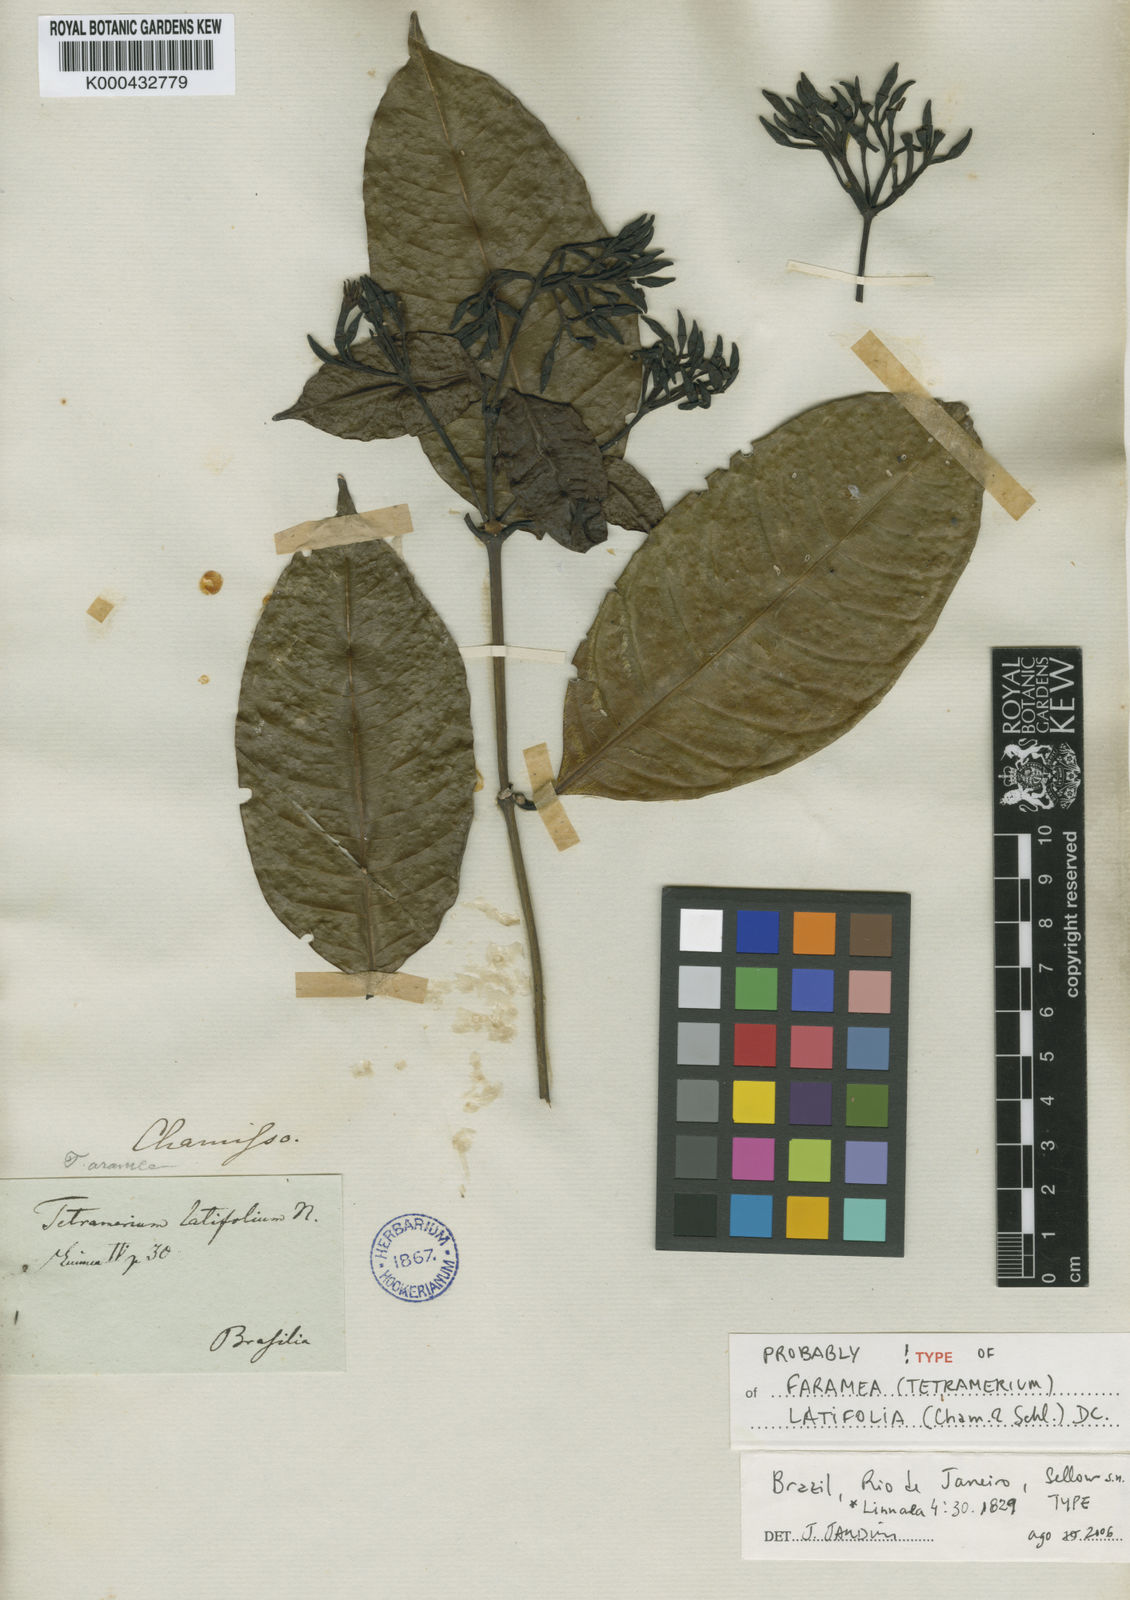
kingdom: Plantae
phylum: Tracheophyta
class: Magnoliopsida
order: Gentianales
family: Rubiaceae
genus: Faramea
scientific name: Faramea latifolia
